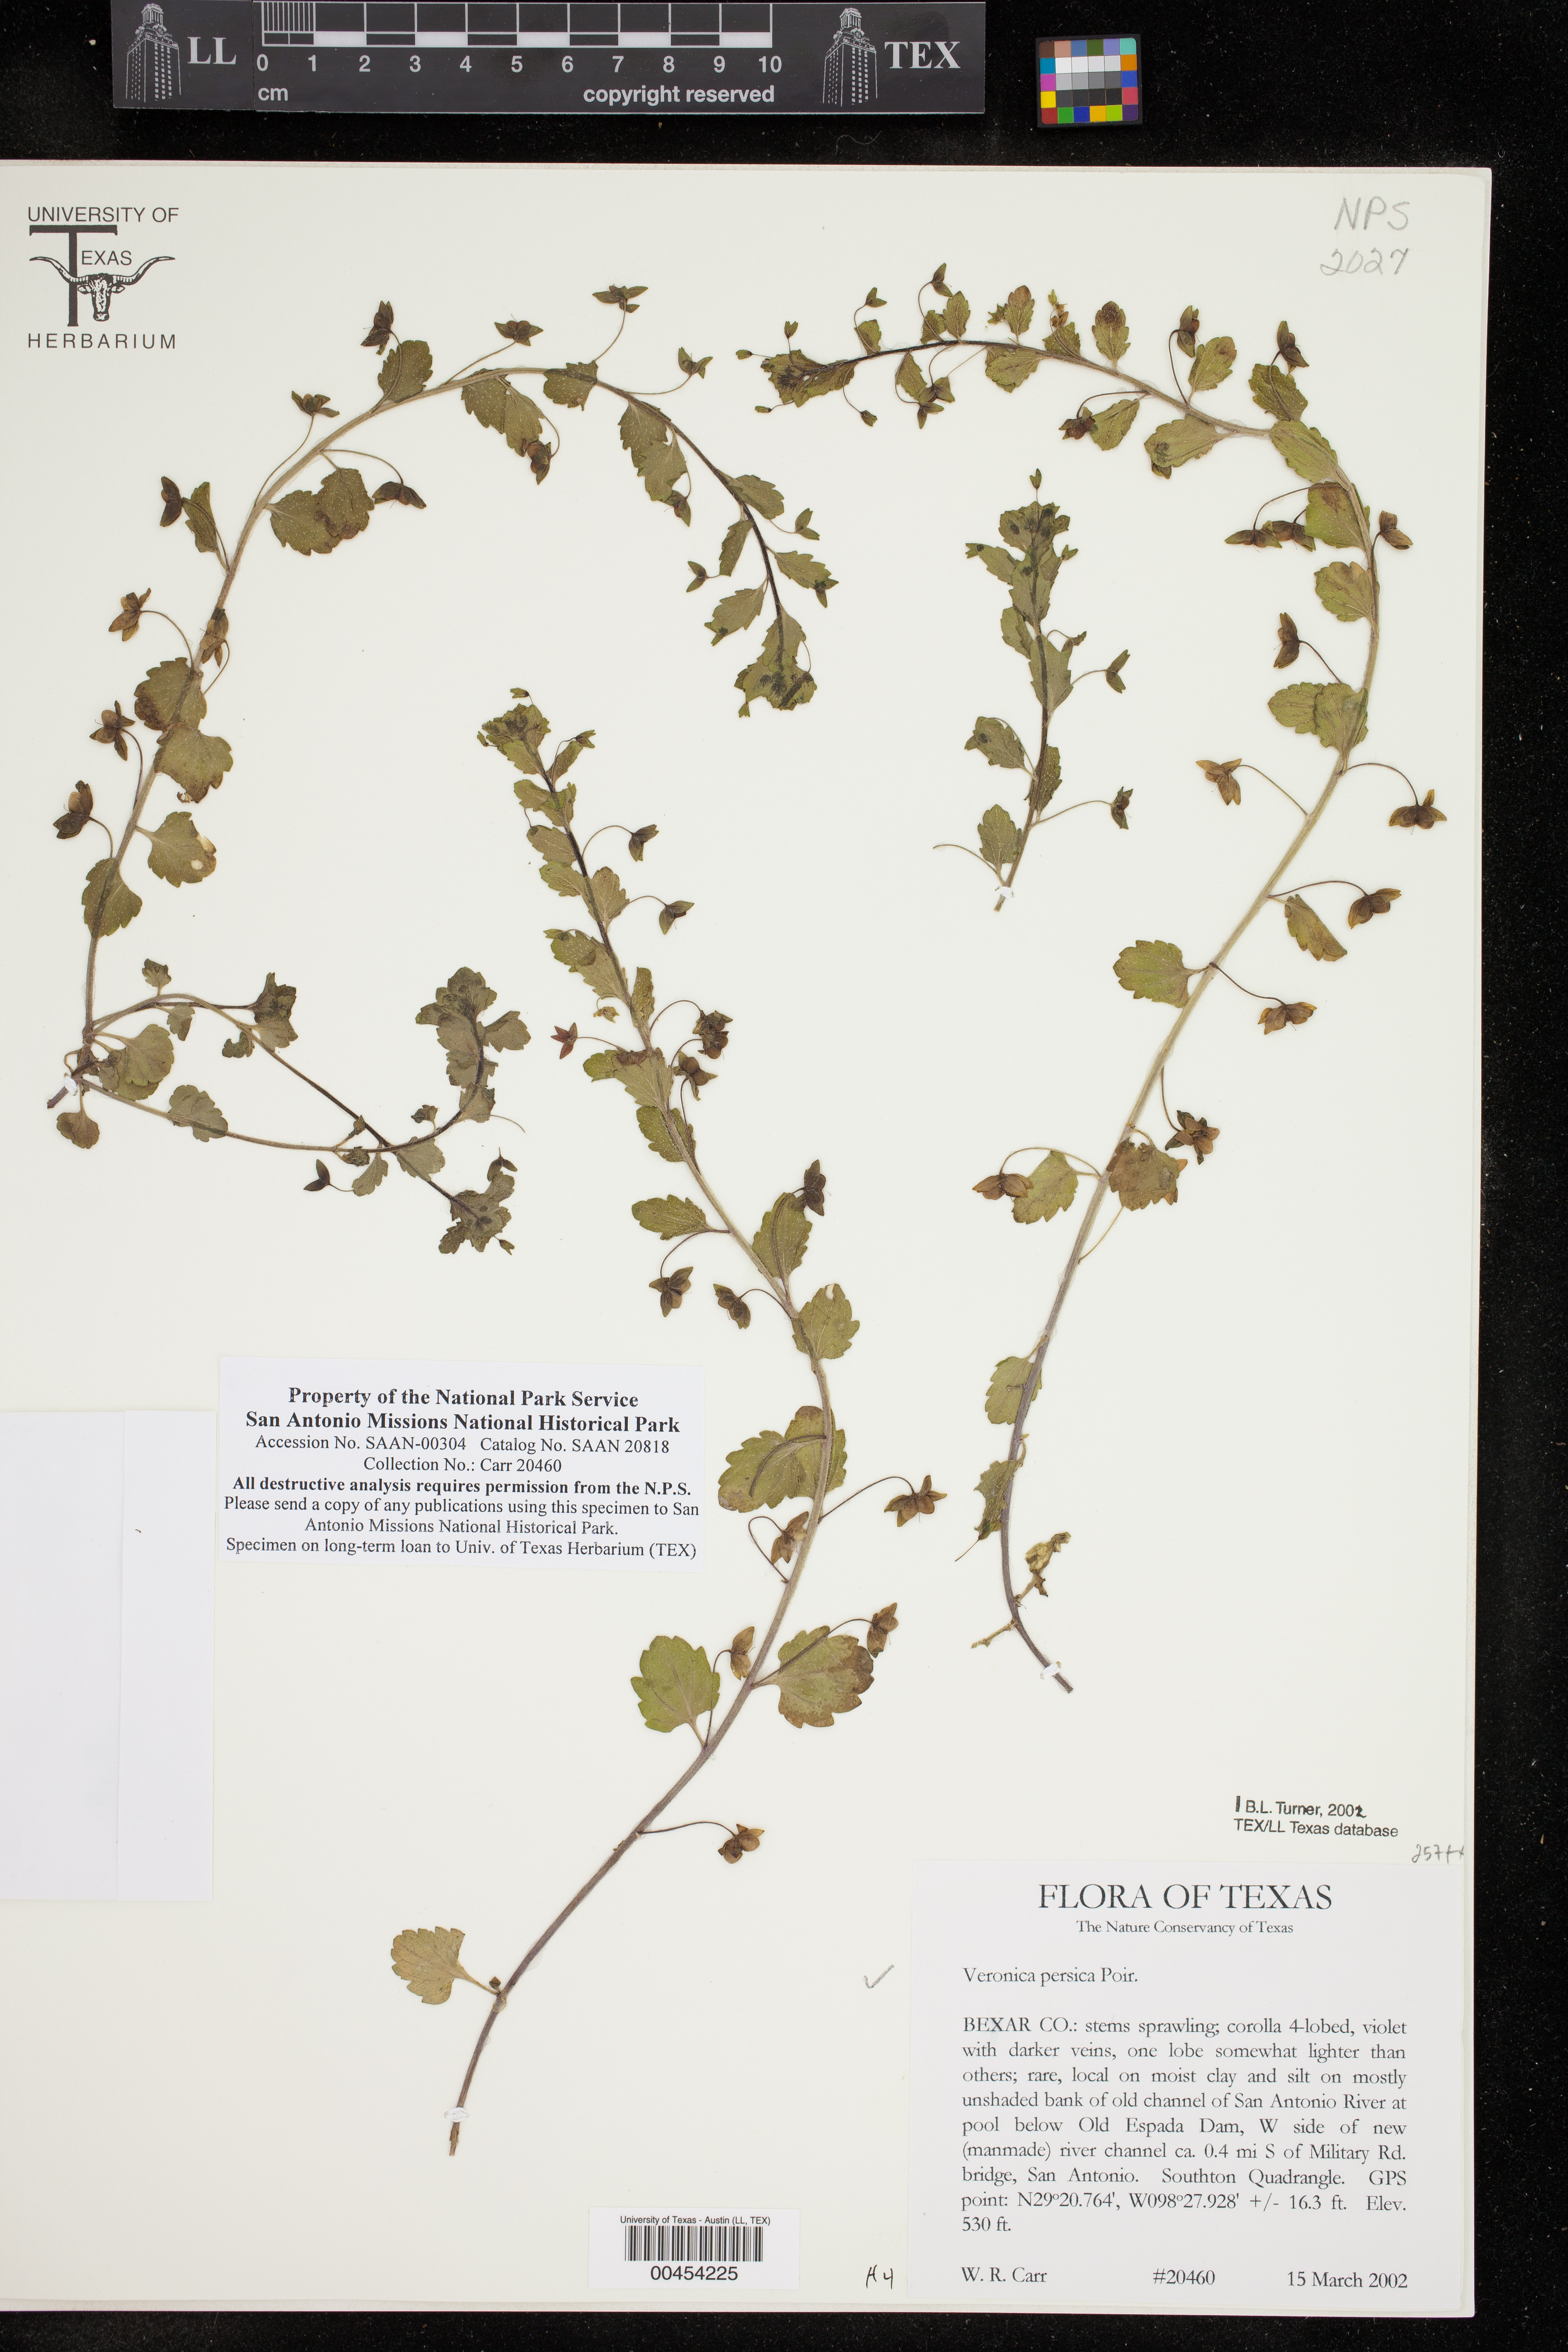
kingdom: Plantae
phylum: Tracheophyta
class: Magnoliopsida
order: Lamiales
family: Plantaginaceae
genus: Veronica
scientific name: Veronica persica
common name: Common field-speedwell
